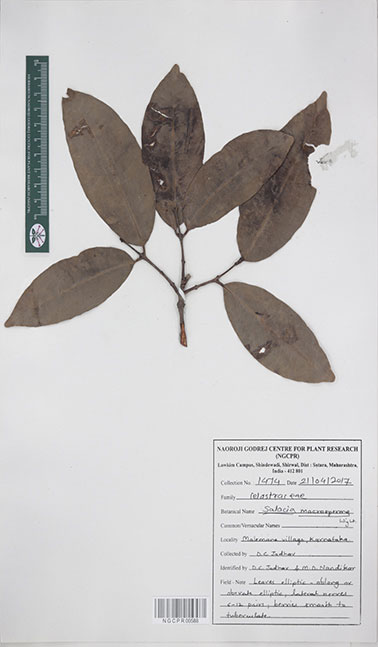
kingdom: Plantae
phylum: Tracheophyta
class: Magnoliopsida
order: Celastrales
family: Celastraceae
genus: Salacia
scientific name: Salacia macrosperma
